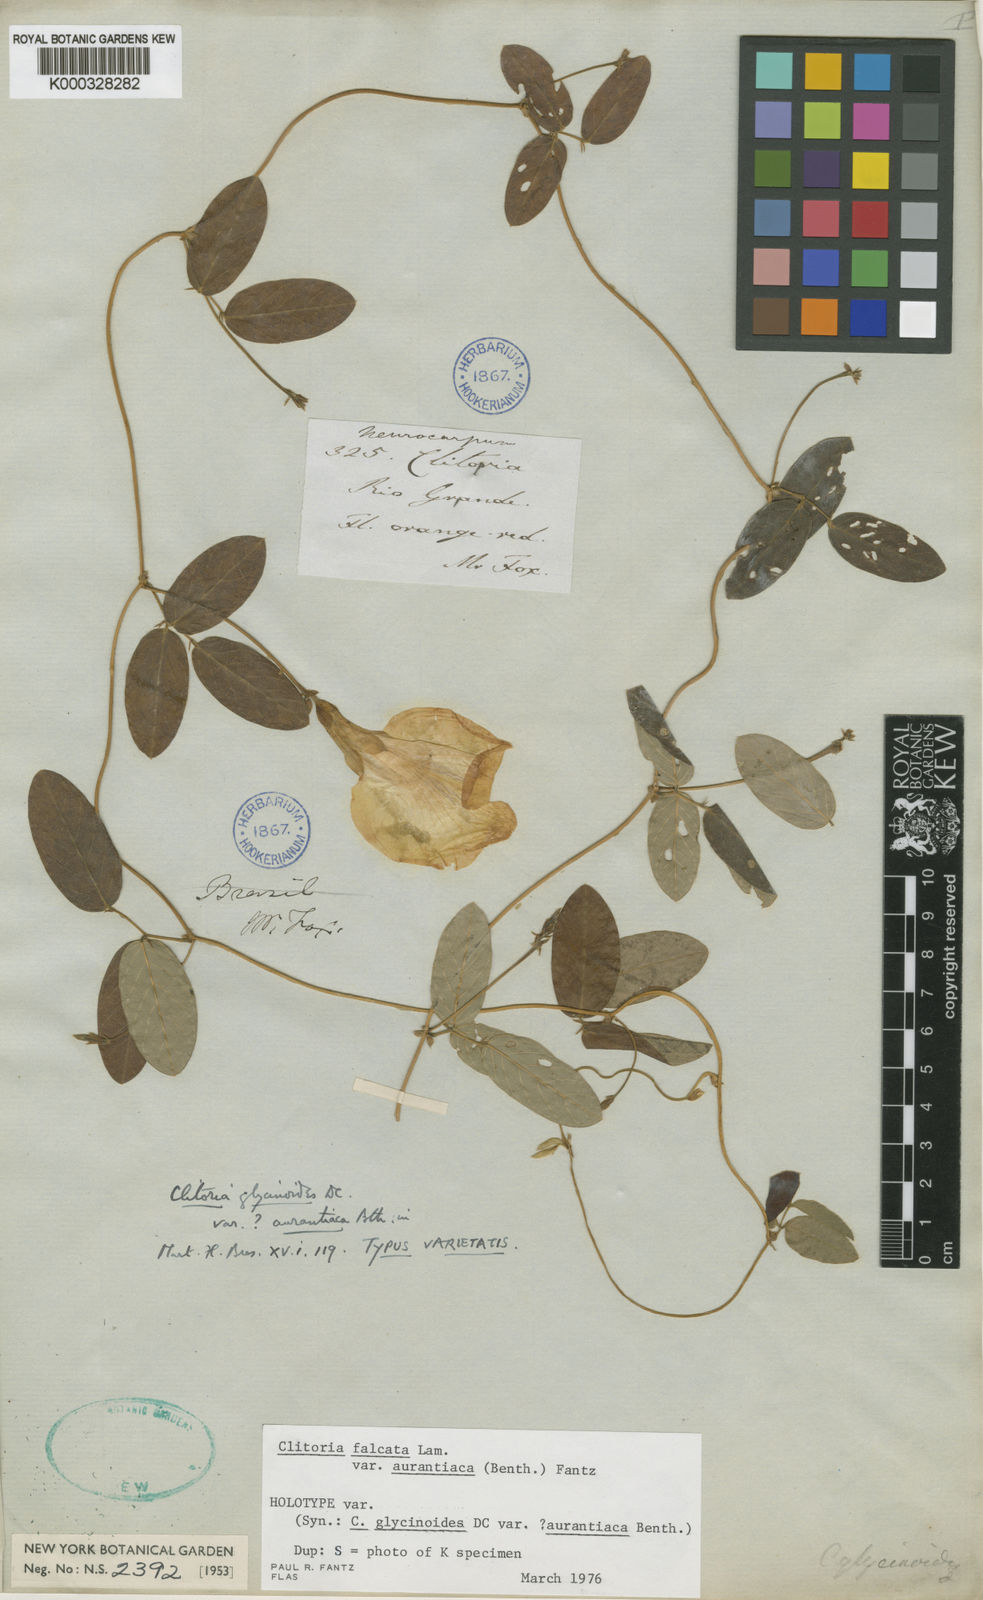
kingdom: Plantae
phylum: Tracheophyta
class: Magnoliopsida
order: Fabales
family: Fabaceae
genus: Clitoria
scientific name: Clitoria falcata
